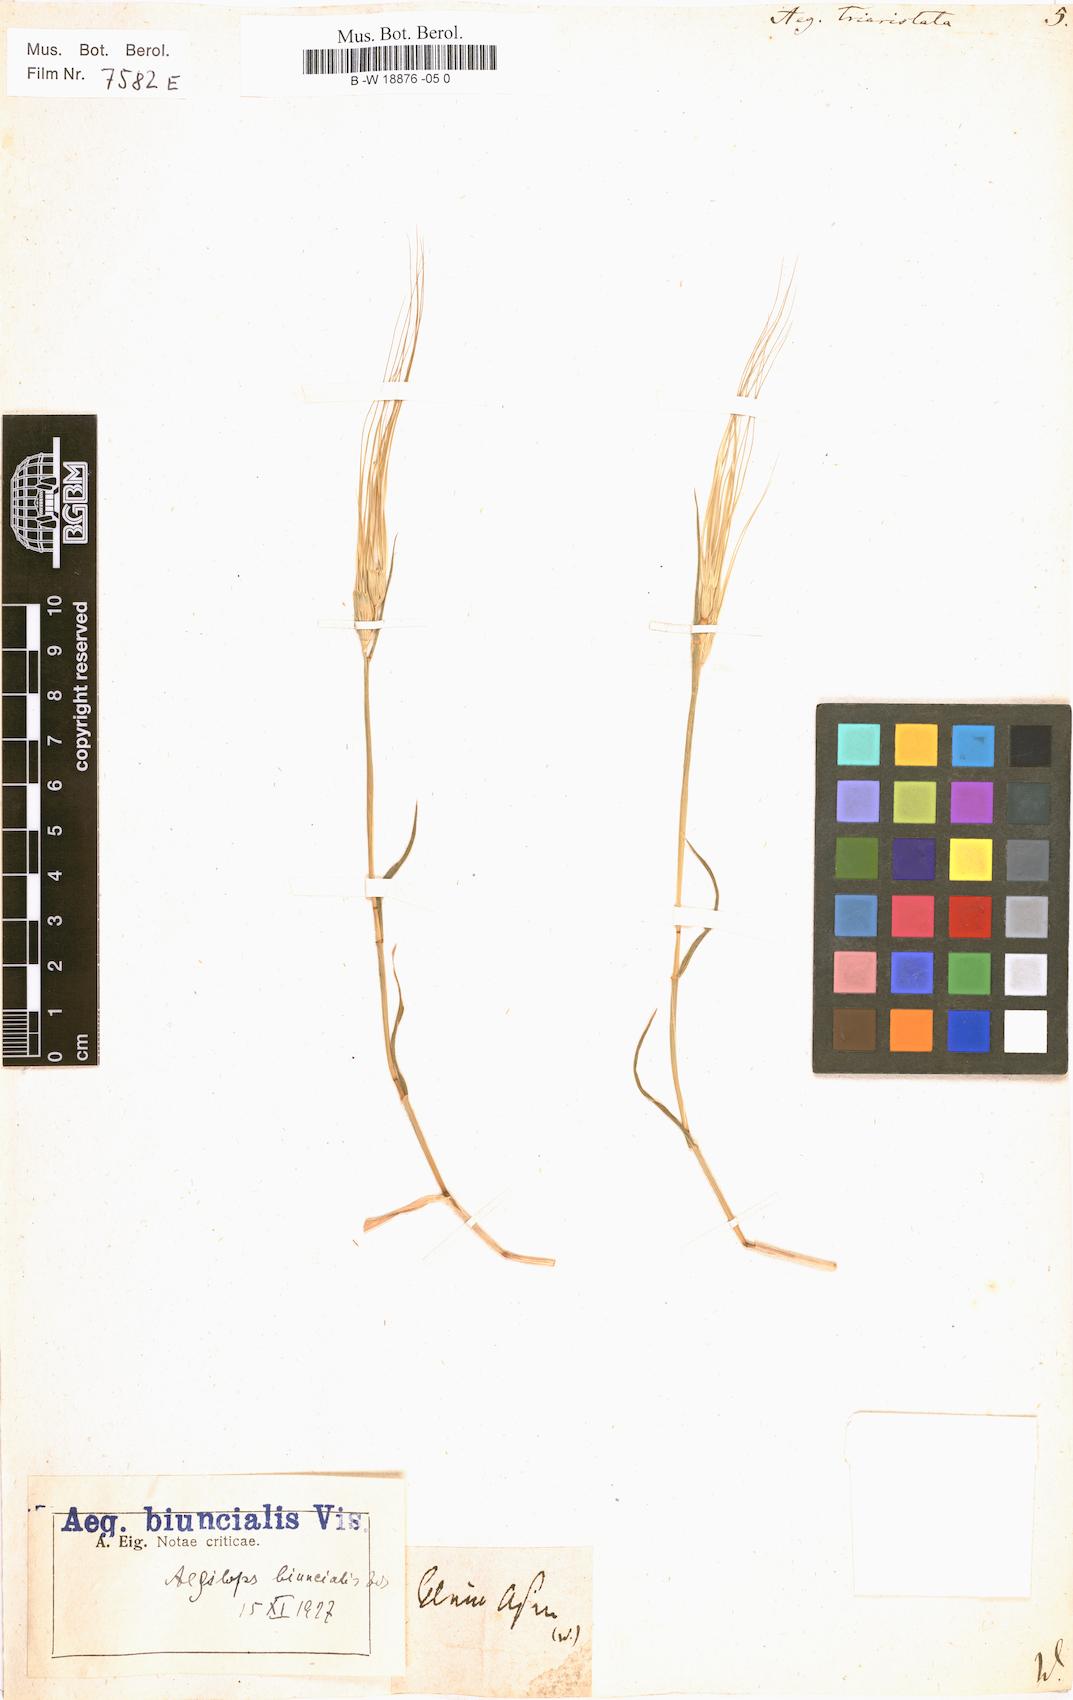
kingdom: Plantae
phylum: Tracheophyta
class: Liliopsida
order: Poales
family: Poaceae
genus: Aegilops
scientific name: Aegilops neglecta
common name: Three-awn goat grass
